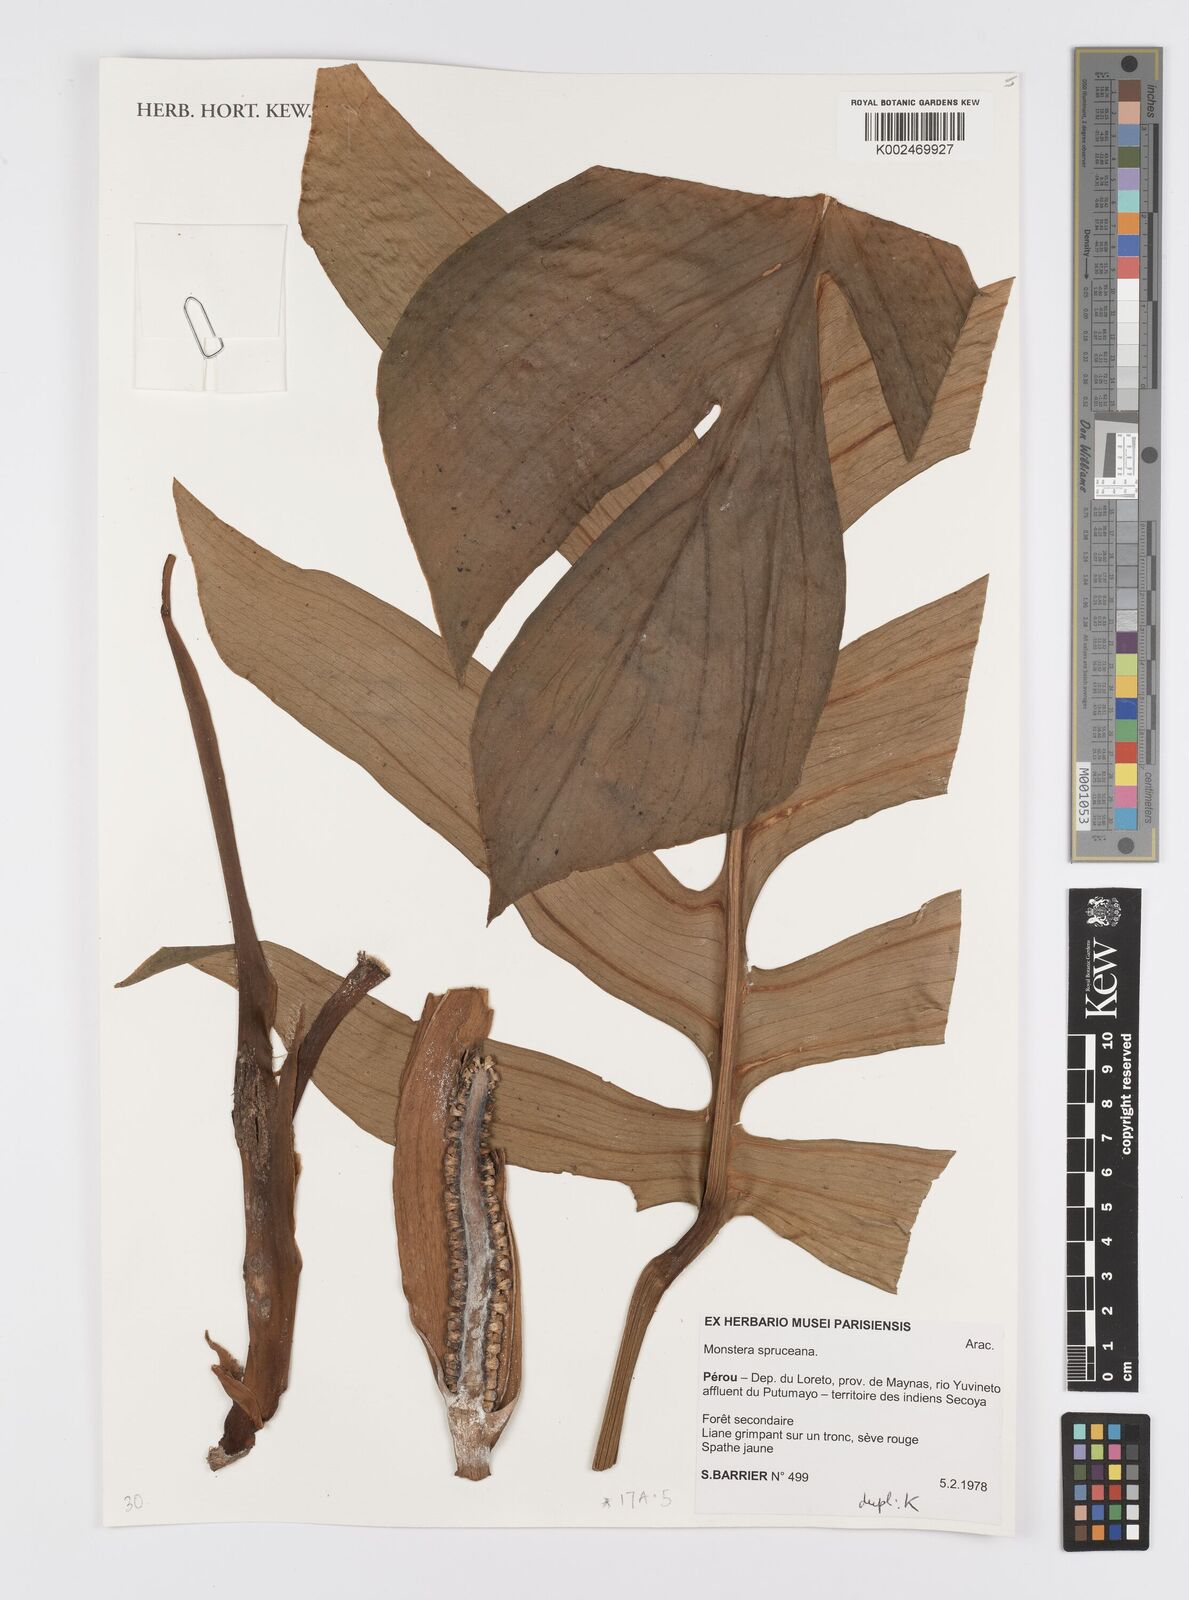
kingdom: Plantae
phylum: Tracheophyta
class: Liliopsida
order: Alismatales
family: Araceae
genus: Monstera
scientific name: Monstera spruceana
